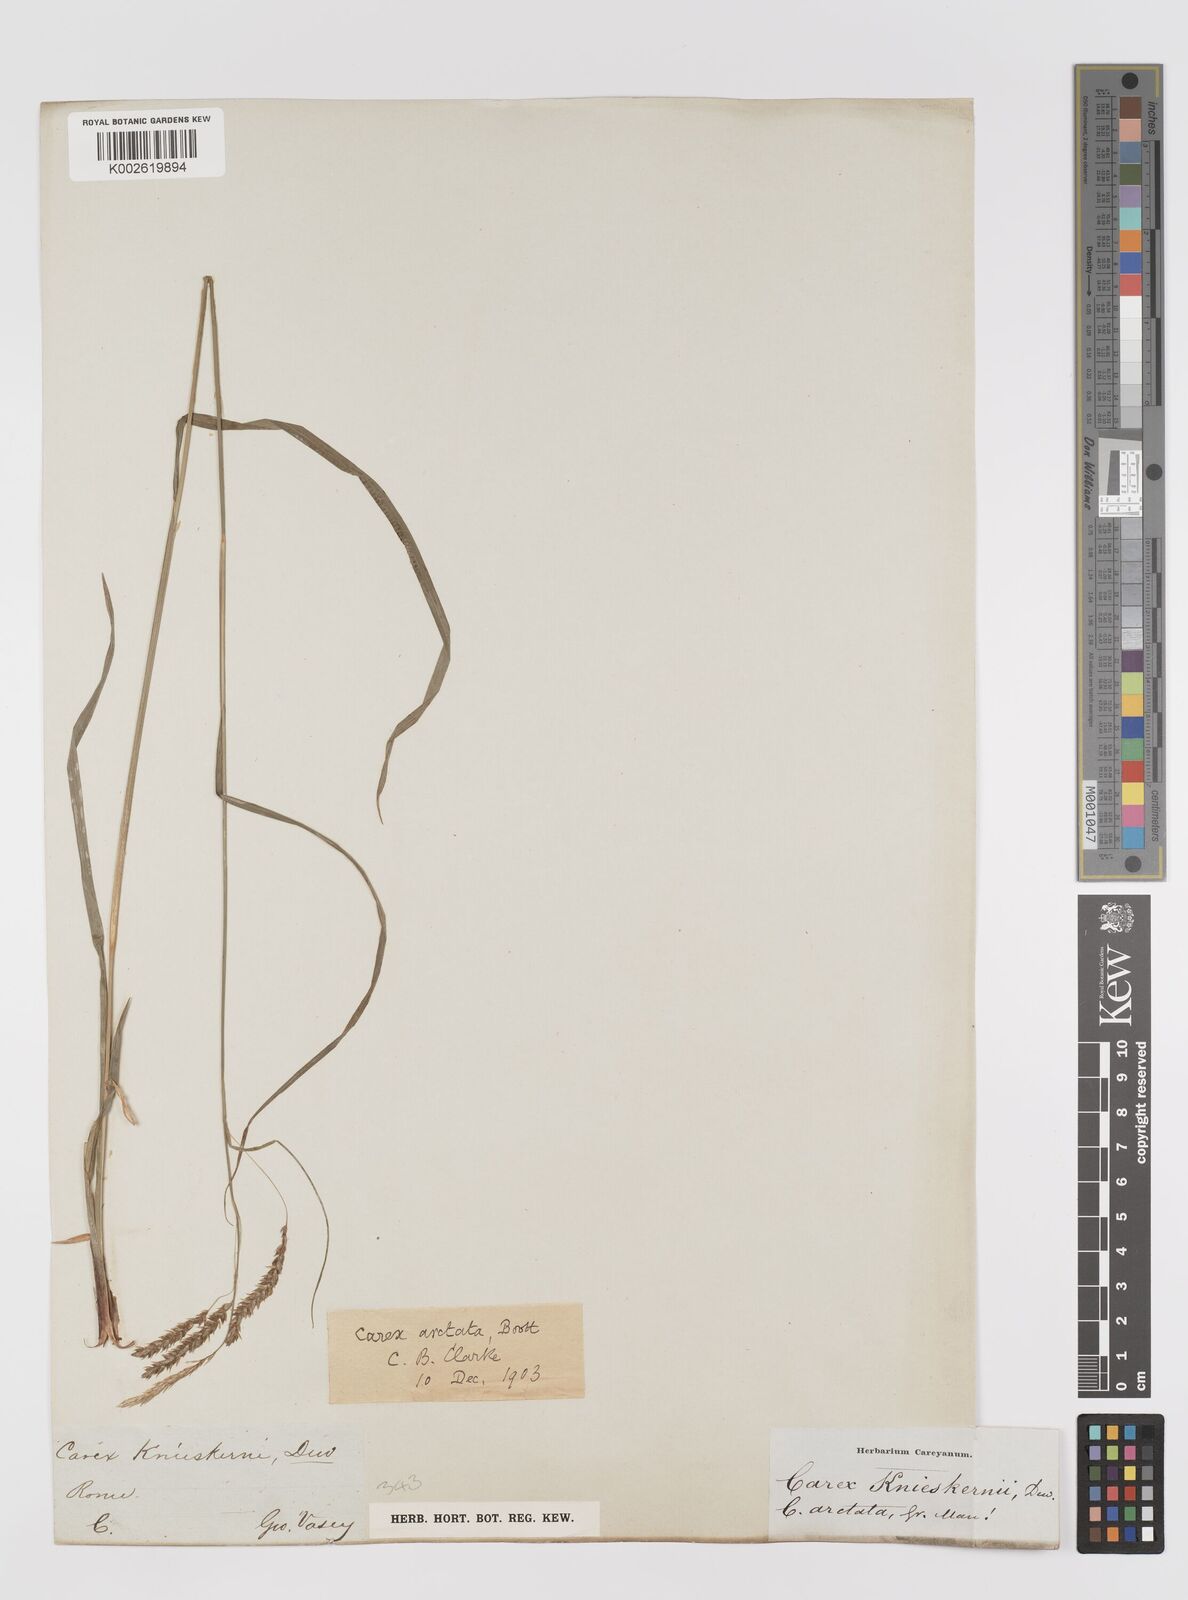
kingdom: Plantae
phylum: Tracheophyta
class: Liliopsida
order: Poales
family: Cyperaceae
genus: Carex
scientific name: Carex arctata
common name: Black sedge
